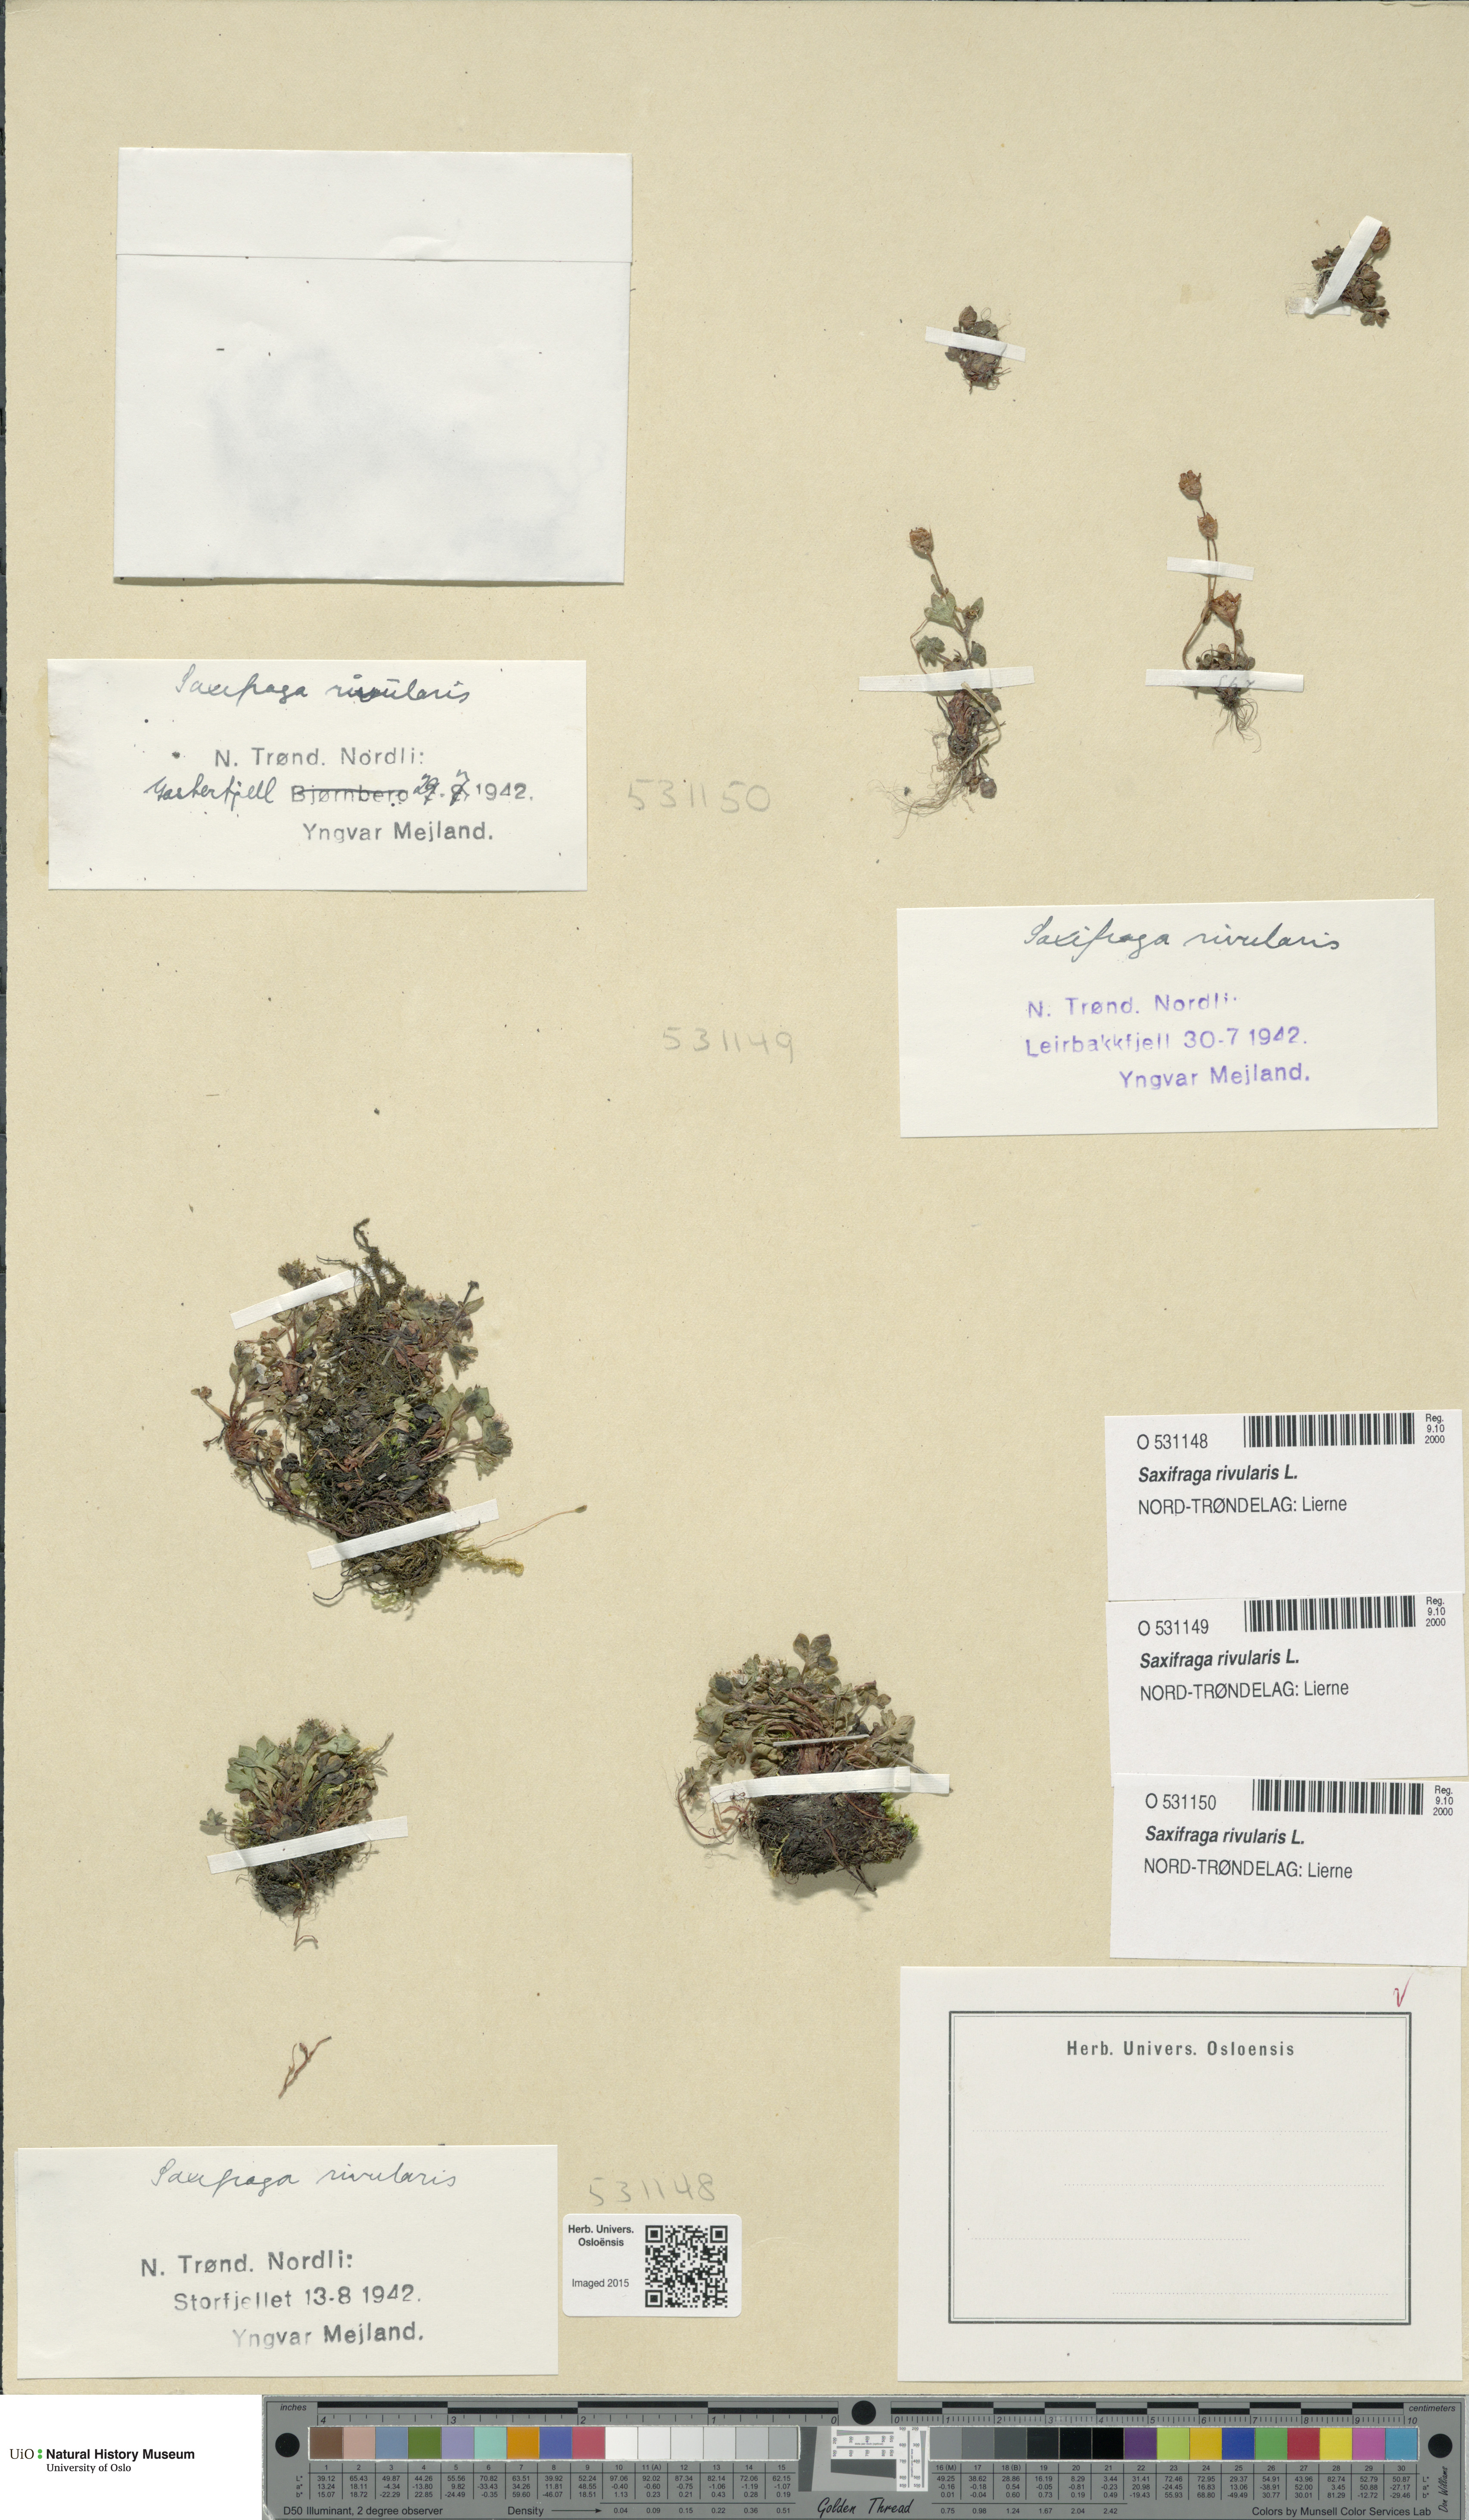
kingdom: Plantae
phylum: Tracheophyta
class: Magnoliopsida
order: Saxifragales
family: Saxifragaceae
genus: Saxifraga
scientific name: Saxifraga rivularis
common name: Highland saxifrage
